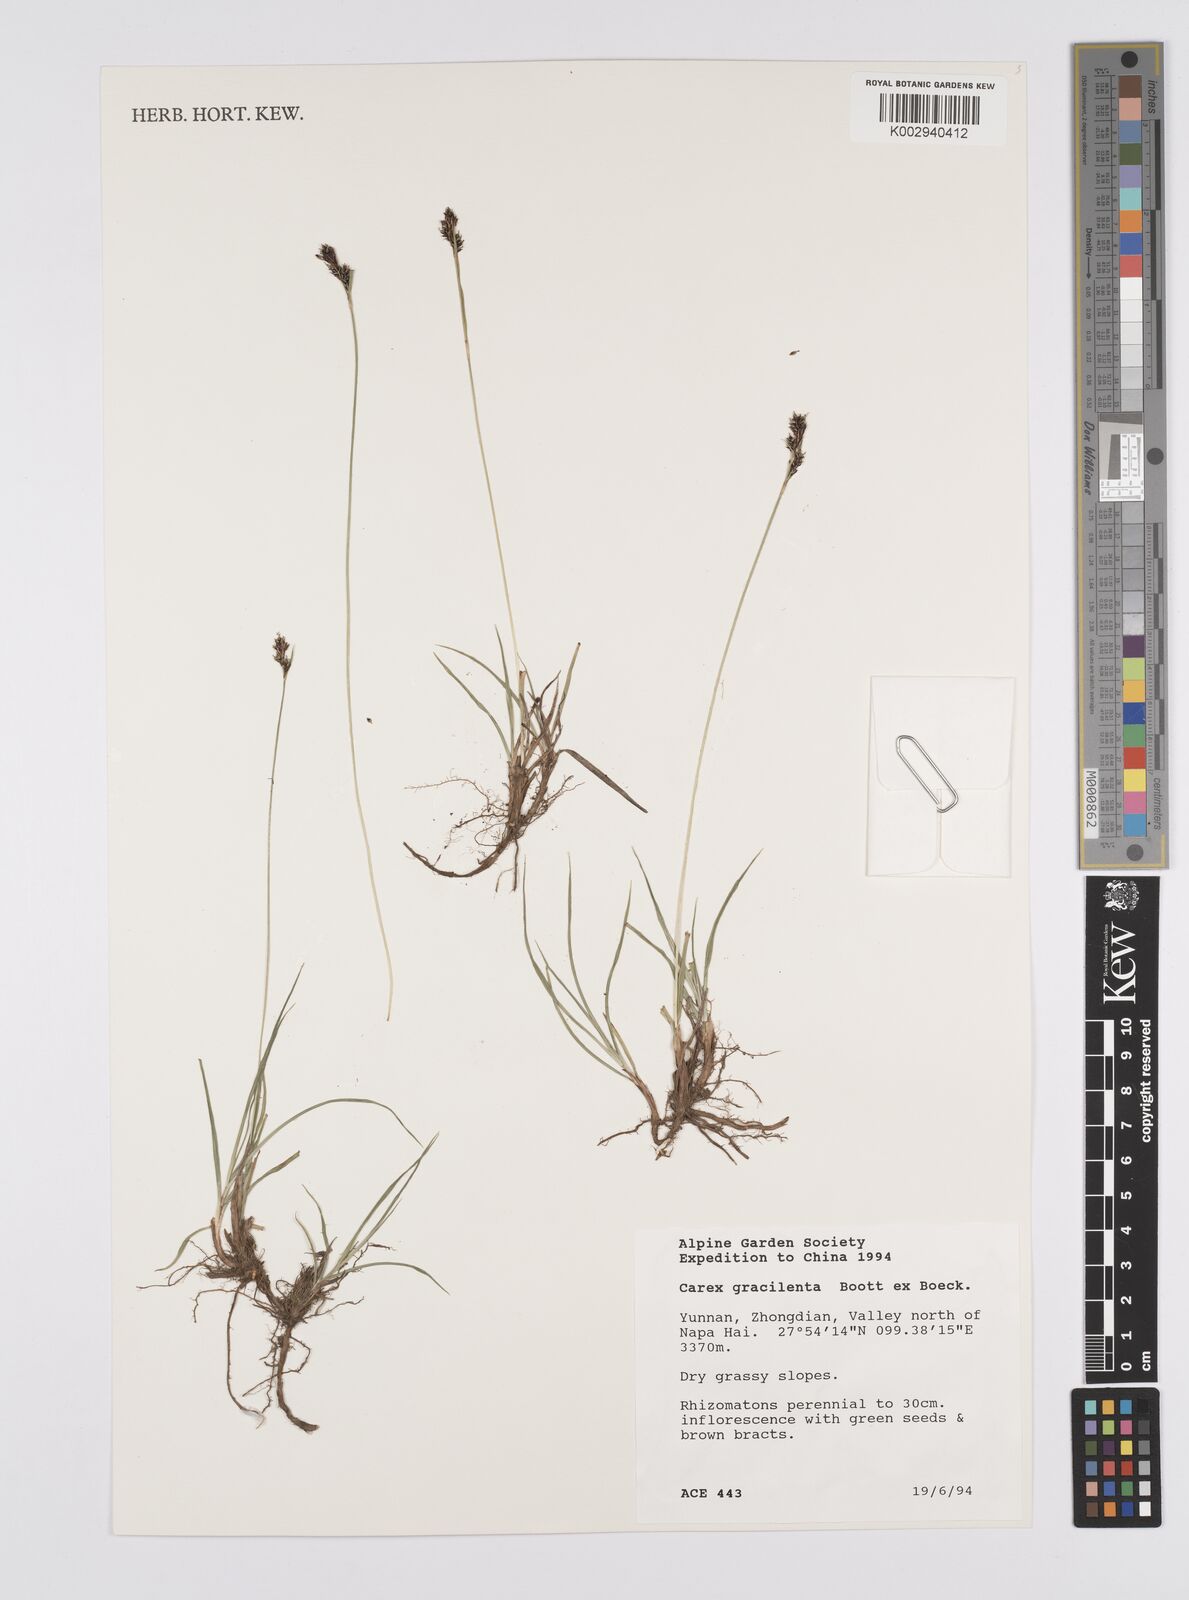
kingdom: Plantae
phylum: Tracheophyta
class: Liliopsida
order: Poales
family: Cyperaceae
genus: Carex
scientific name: Carex gracilenta
